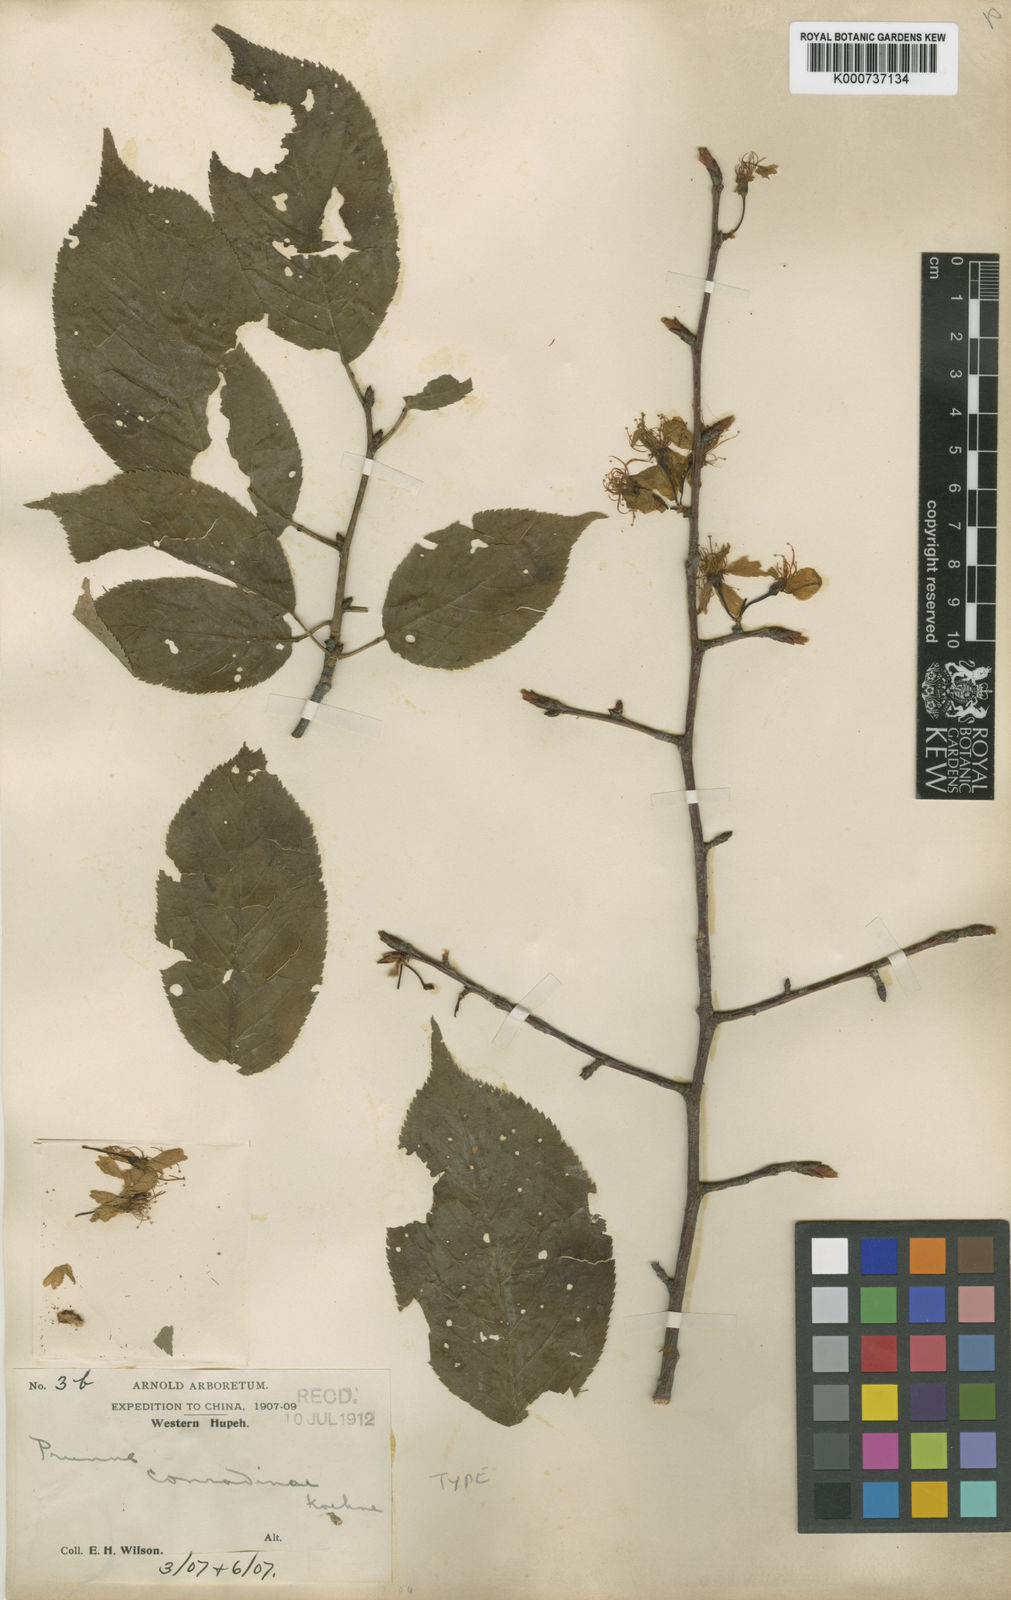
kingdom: Plantae
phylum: Tracheophyta
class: Magnoliopsida
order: Rosales
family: Rosaceae
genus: Prunus
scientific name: Prunus conradinae
